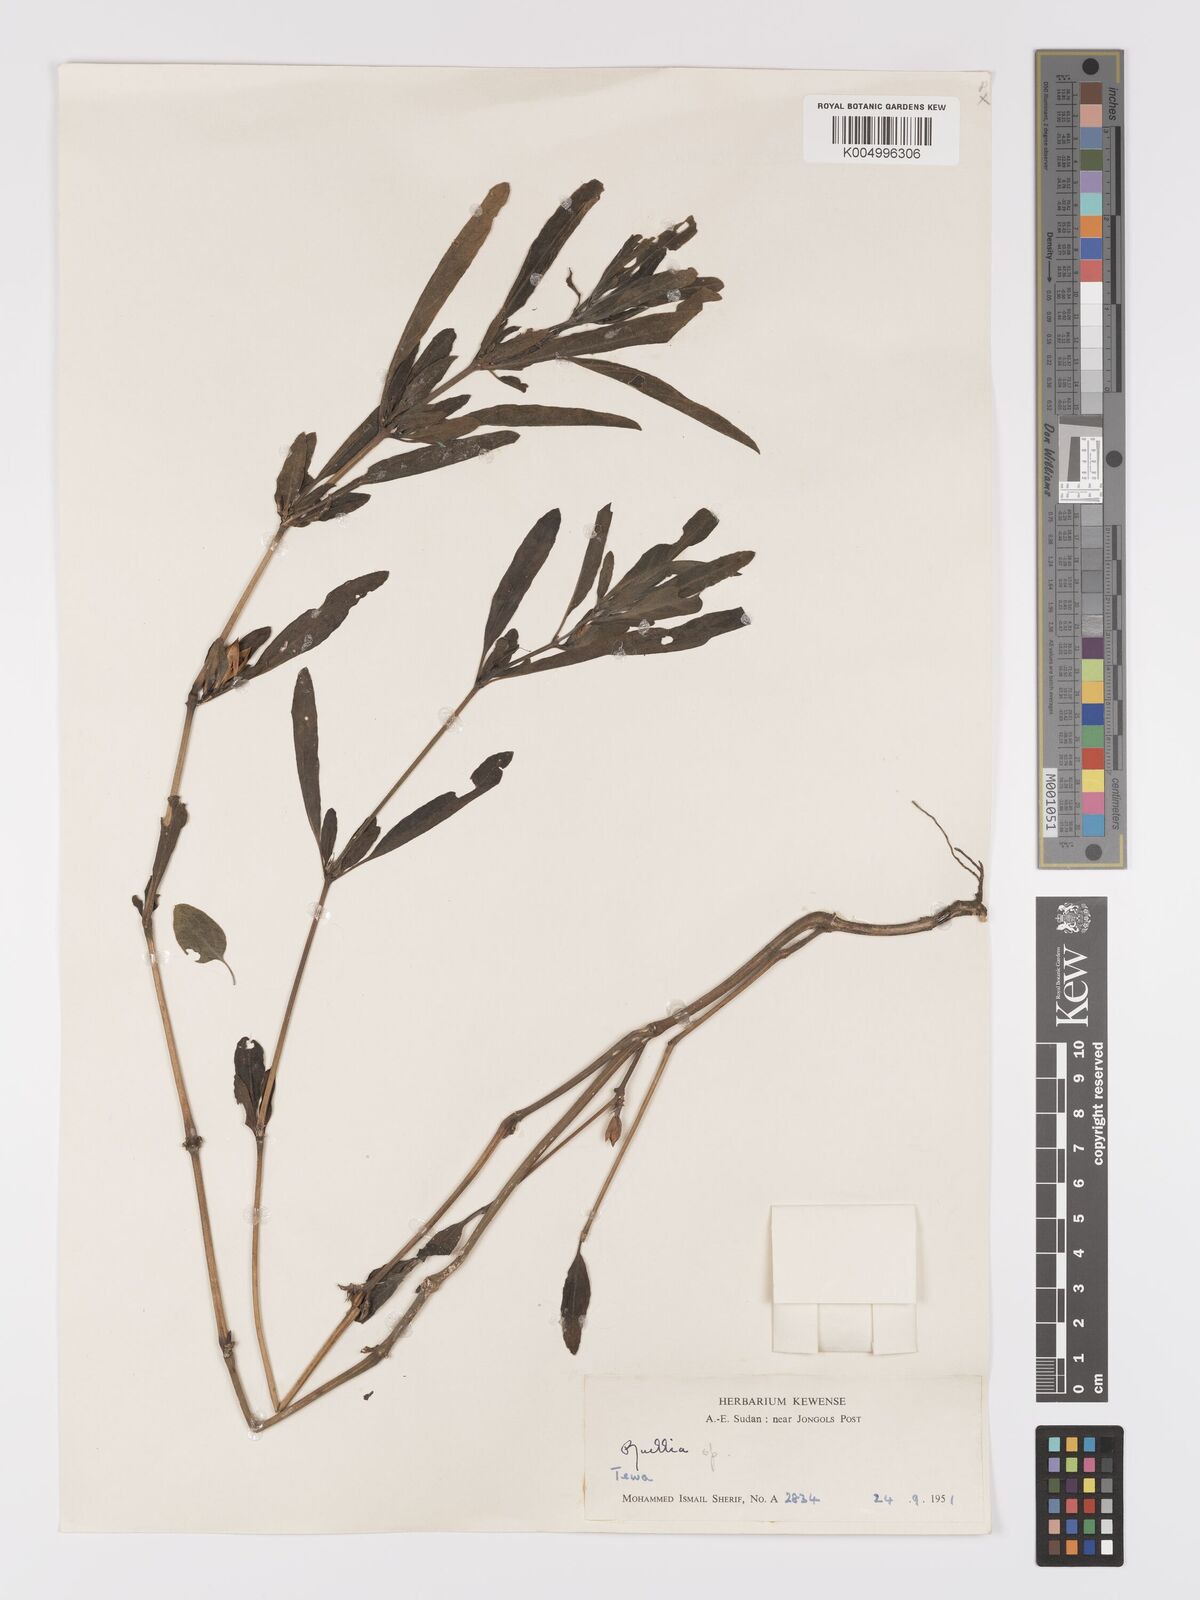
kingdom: Plantae
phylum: Tracheophyta
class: Magnoliopsida
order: Lamiales
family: Acanthaceae
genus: Ruellia
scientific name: Ruellia patula
